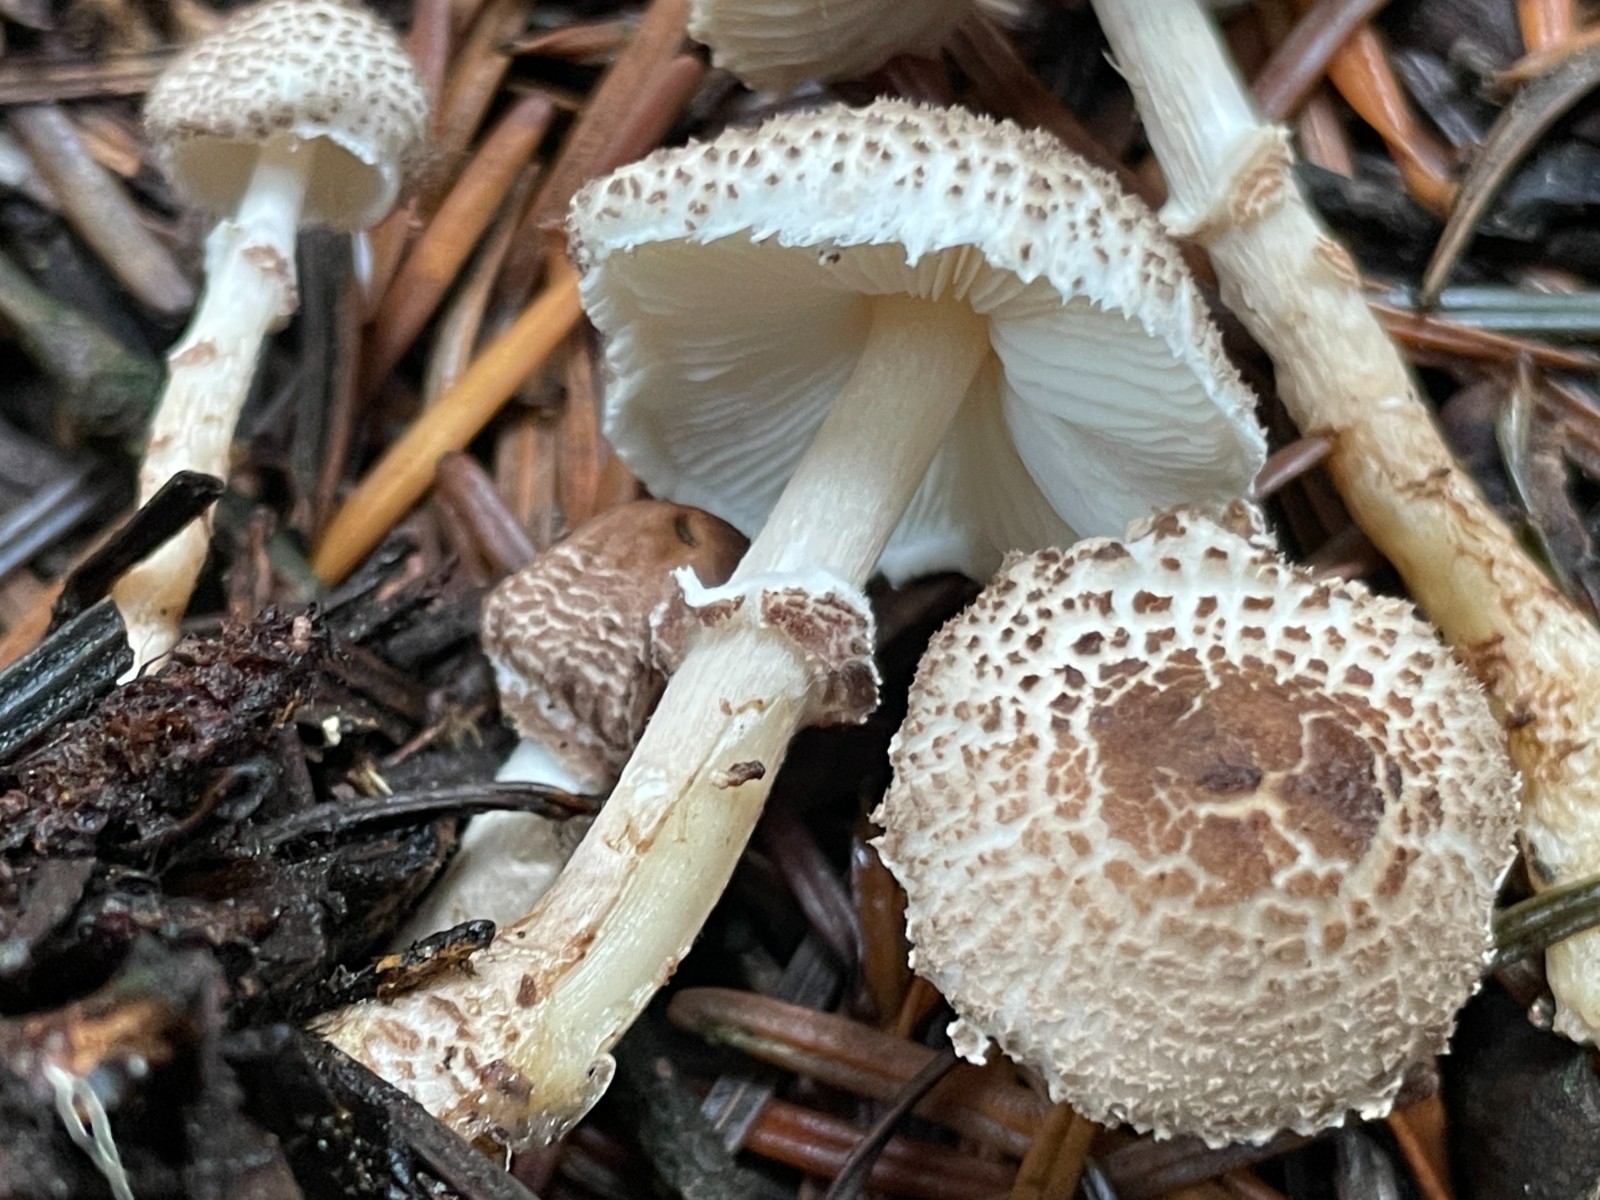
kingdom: Fungi
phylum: Basidiomycota
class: Agaricomycetes
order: Agaricales
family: Agaricaceae
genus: Lepiota
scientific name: Lepiota felina
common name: sortskællet parasolhat
